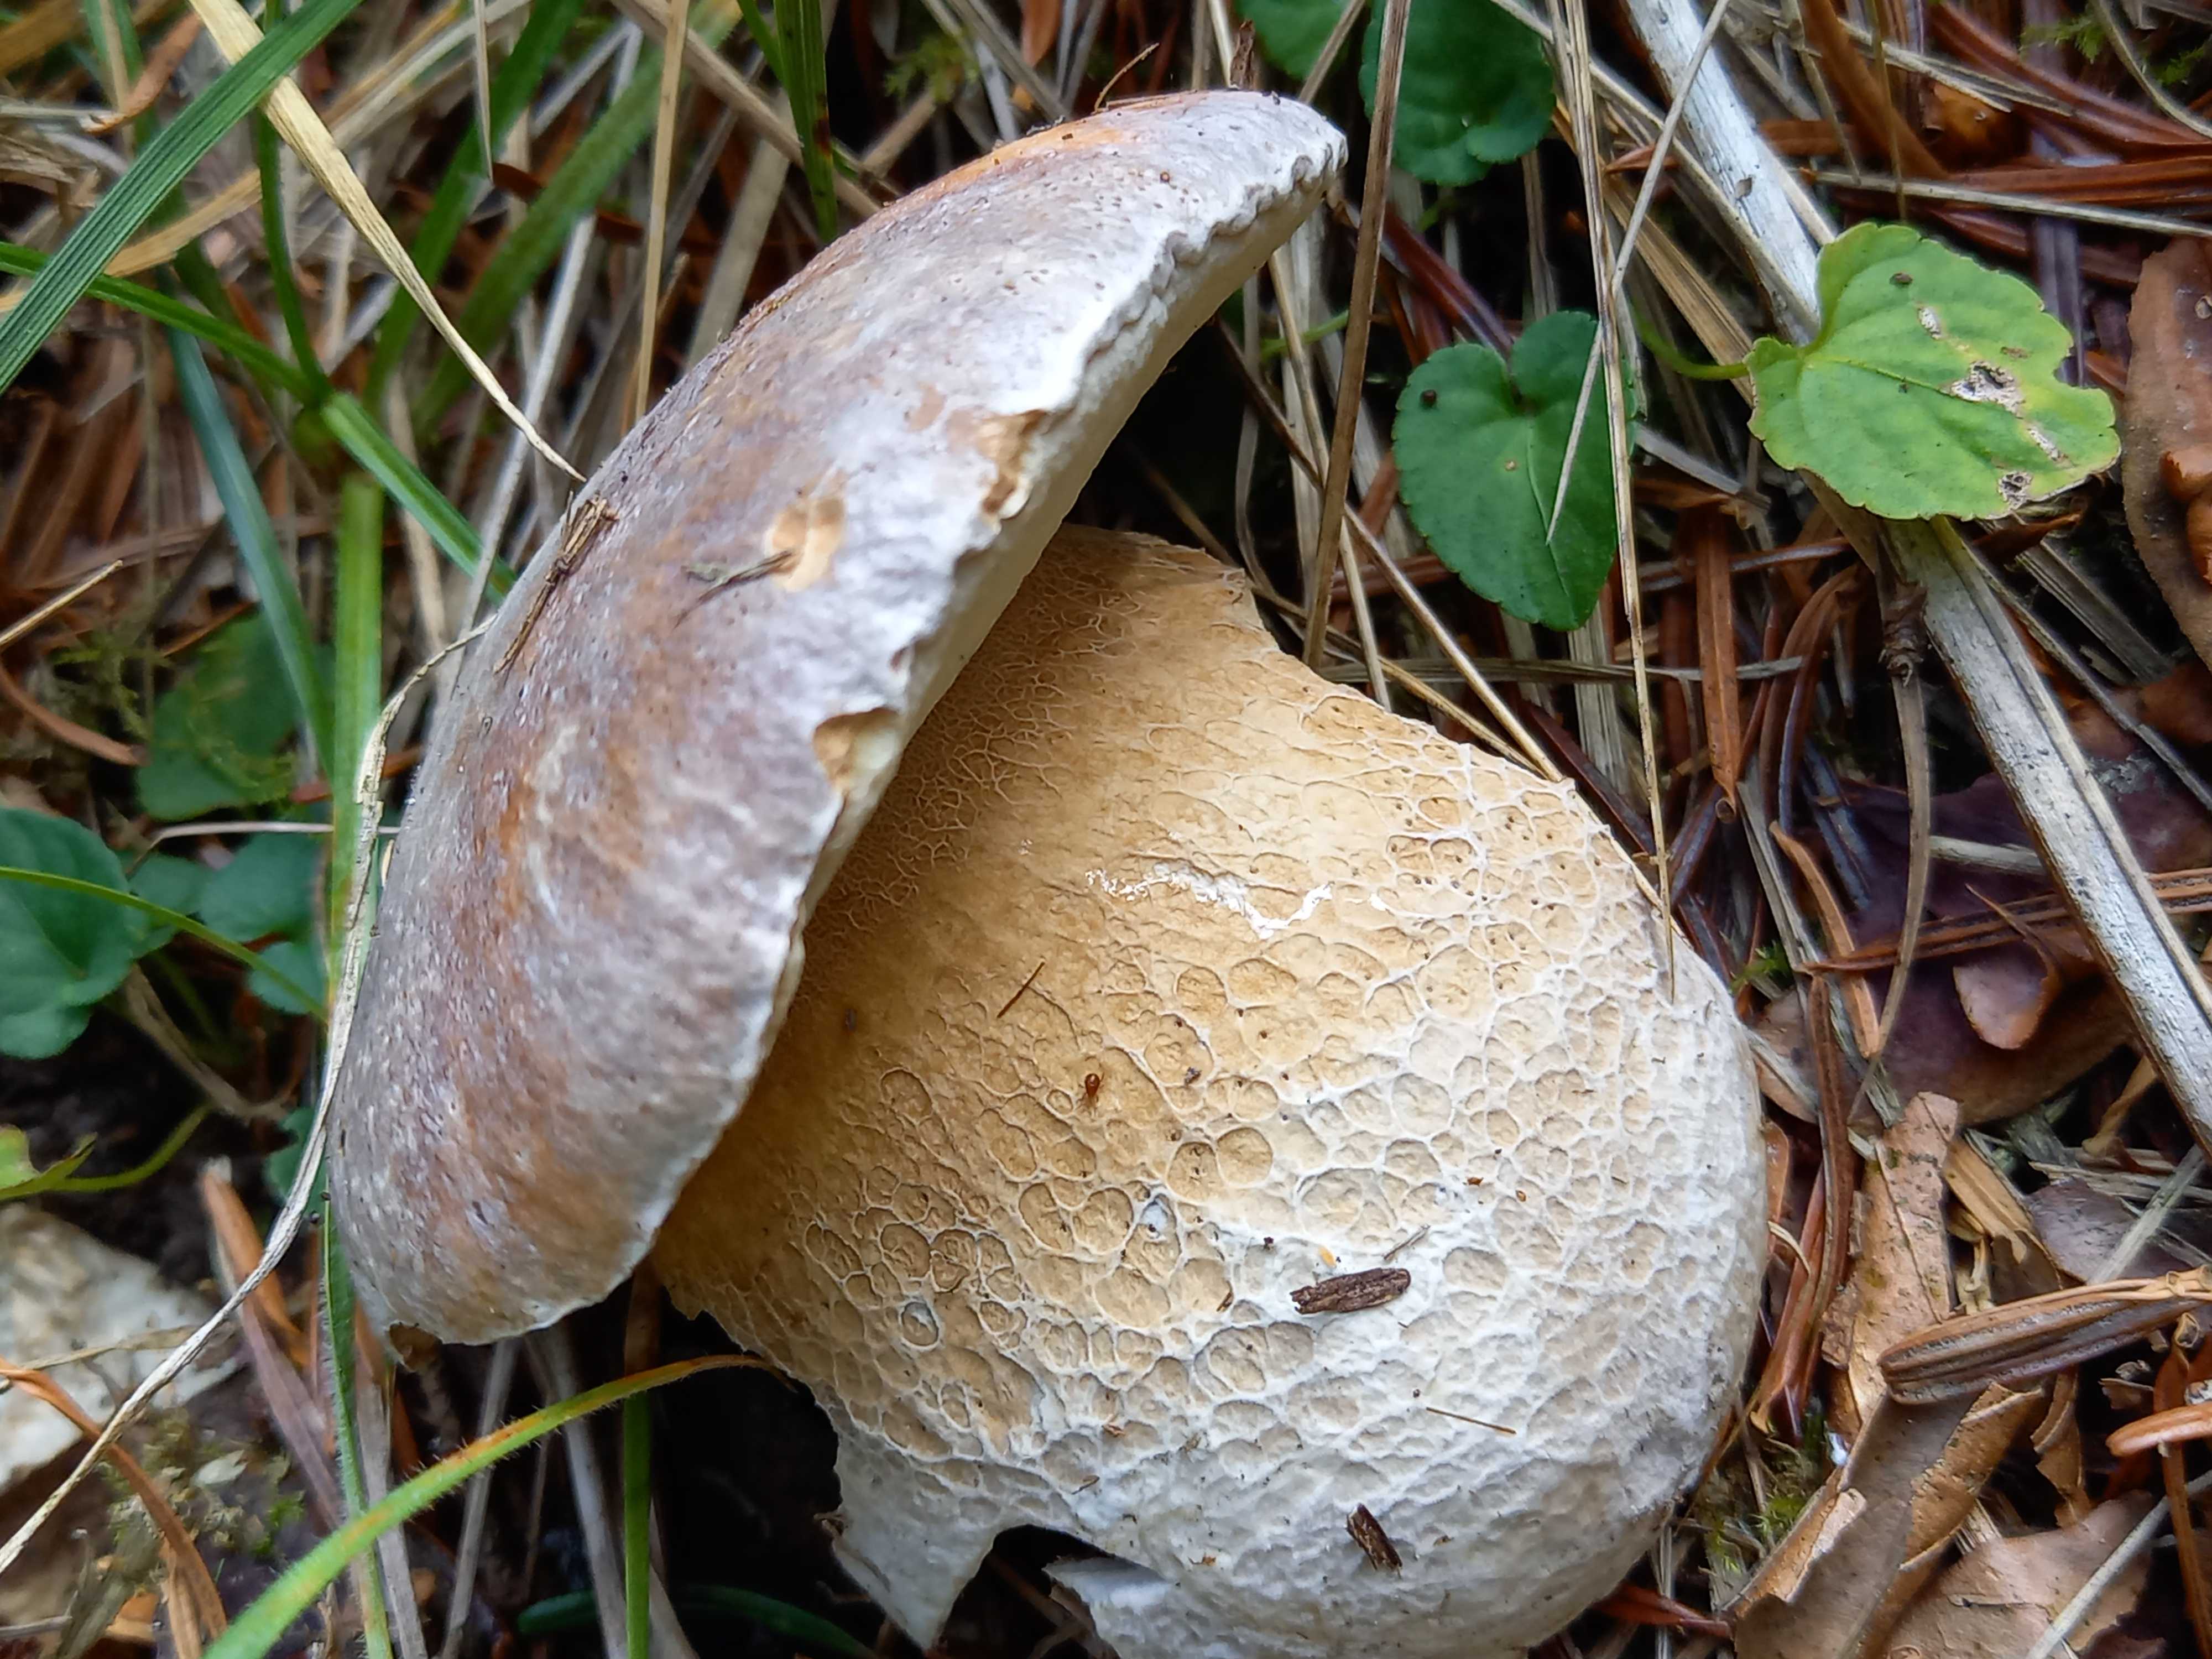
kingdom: Fungi
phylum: Basidiomycota
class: Agaricomycetes
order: Boletales
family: Boletaceae
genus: Boletus
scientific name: Boletus edulis
